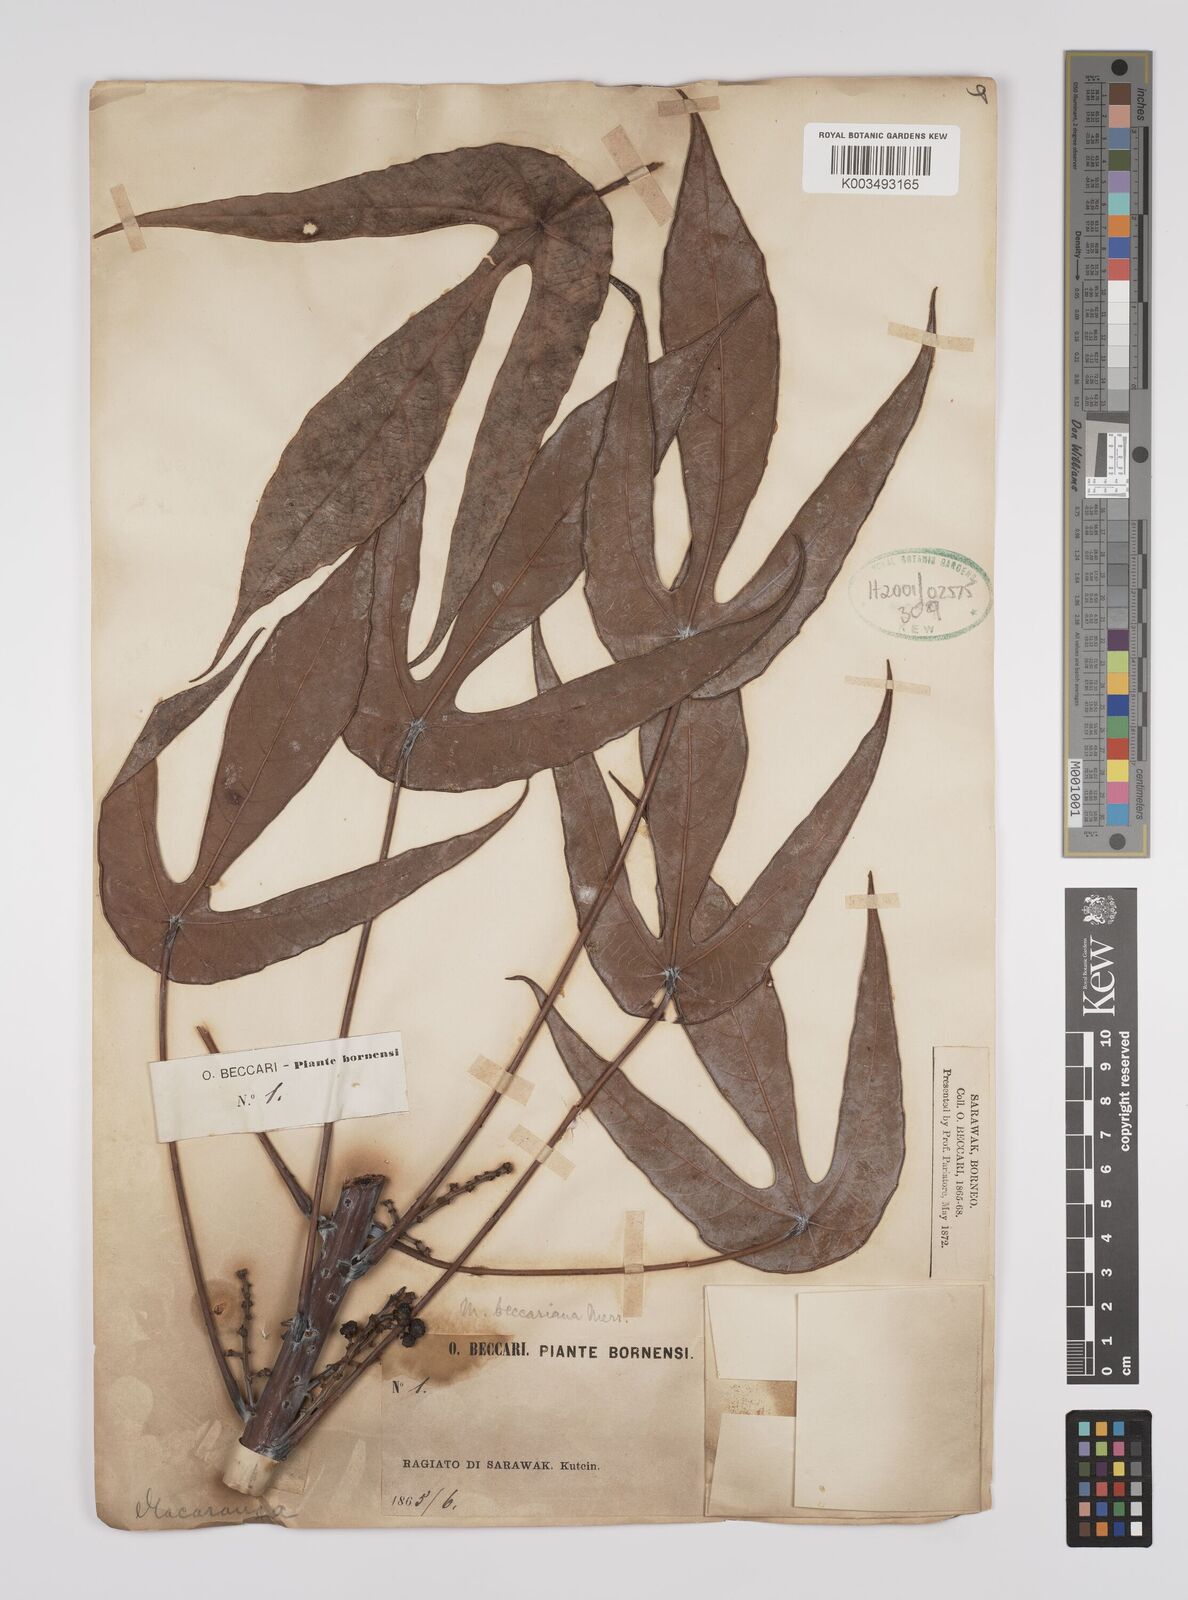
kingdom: Plantae
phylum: Tracheophyta
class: Magnoliopsida
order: Malpighiales
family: Euphorbiaceae
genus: Macaranga
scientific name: Macaranga beccariana
